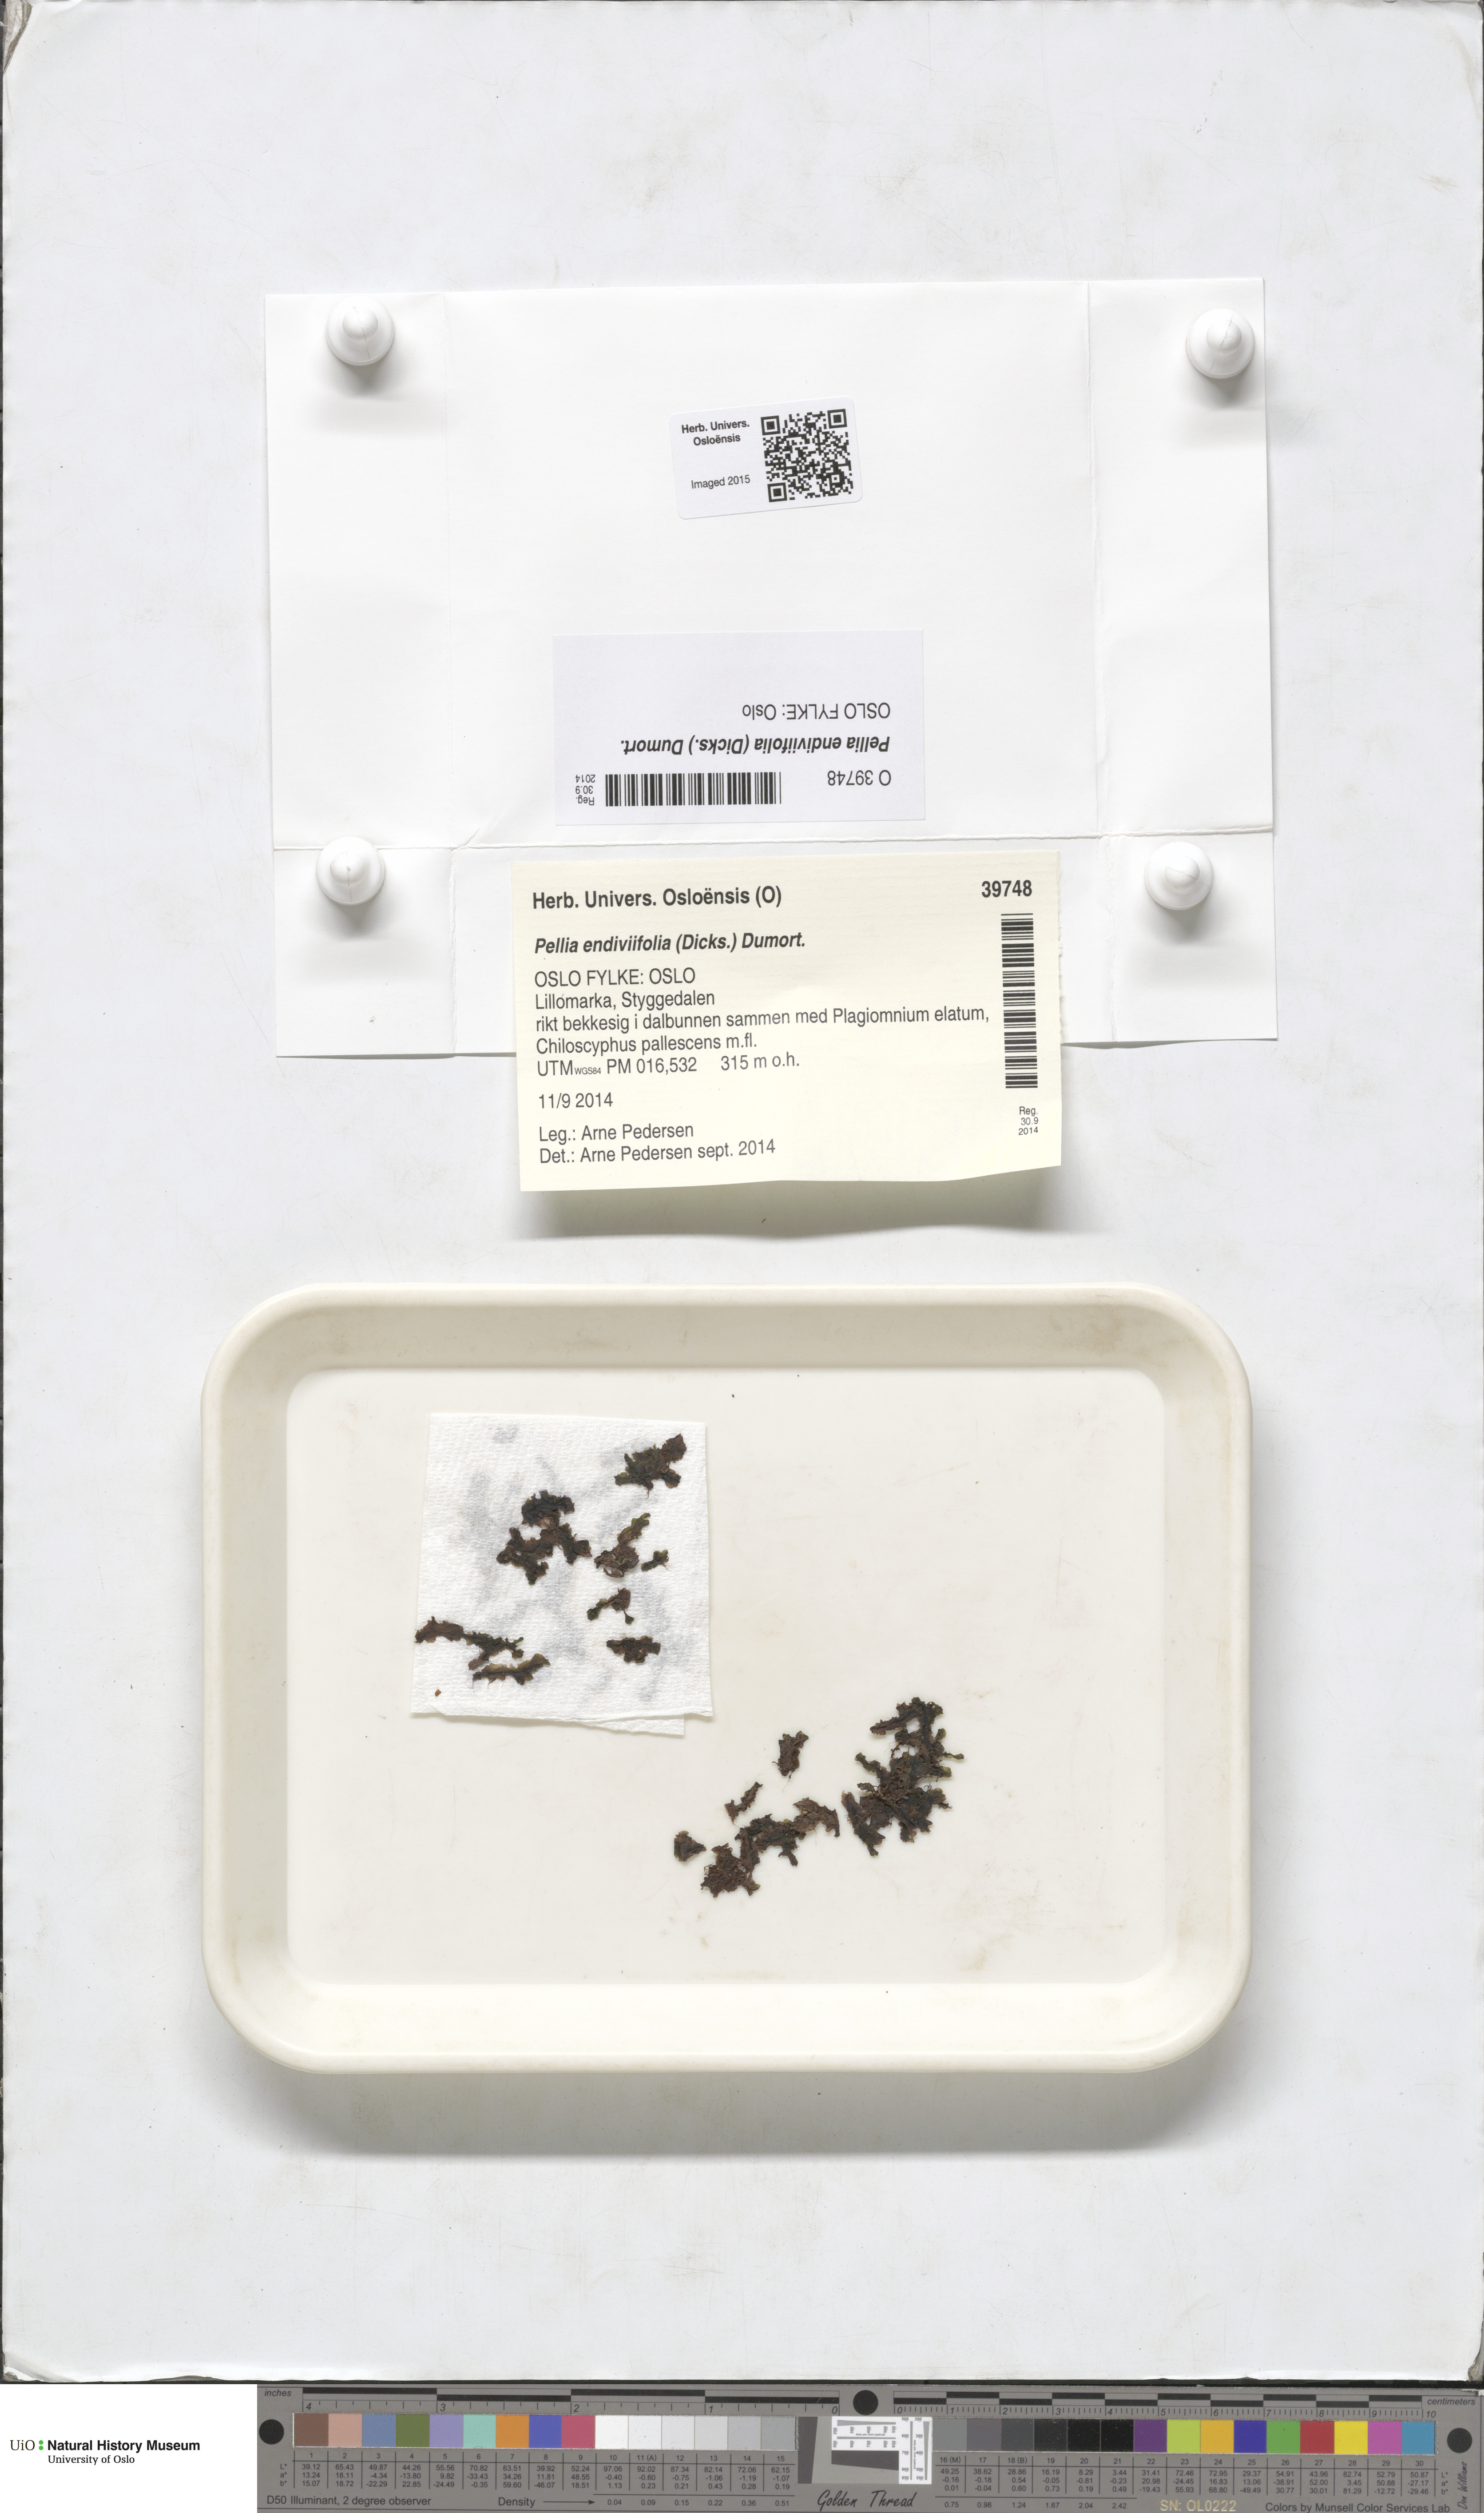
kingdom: Plantae
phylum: Marchantiophyta
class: Jungermanniopsida
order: Pelliales
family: Pelliaceae
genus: Apopellia
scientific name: Apopellia endiviifolia
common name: Endive pellia
